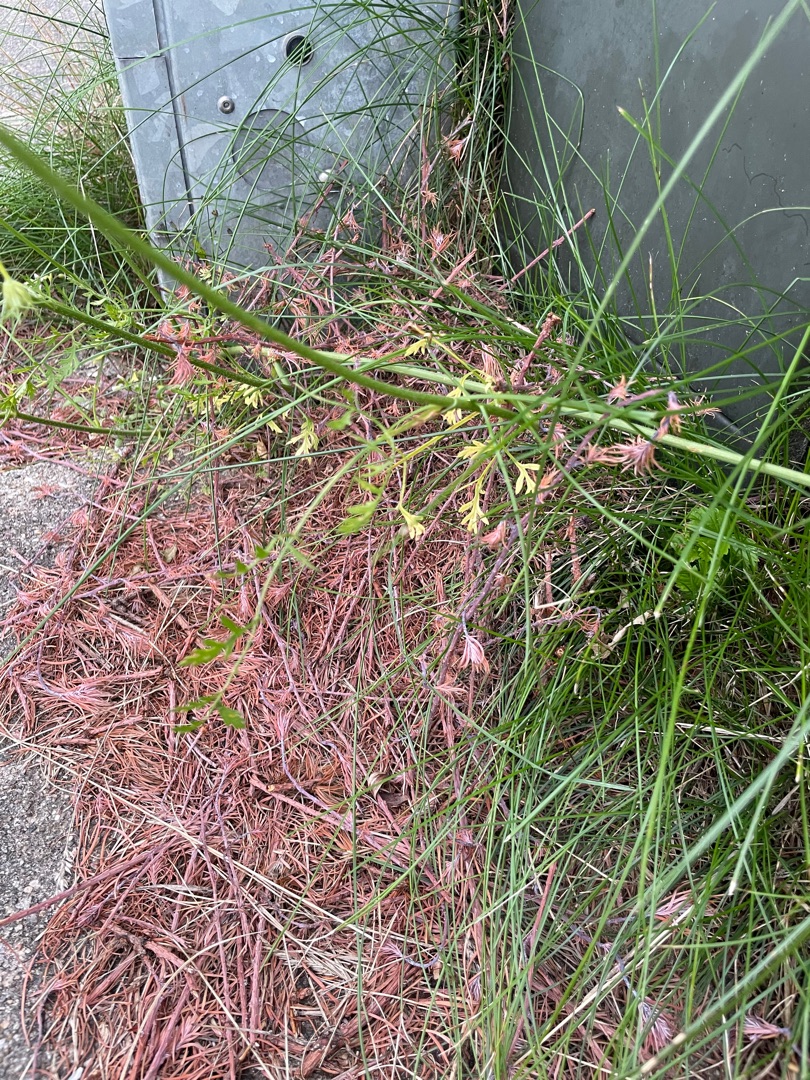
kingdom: Plantae
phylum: Tracheophyta
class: Magnoliopsida
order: Apiales
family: Apiaceae
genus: Daucus
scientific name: Daucus carota
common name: Gulerod
